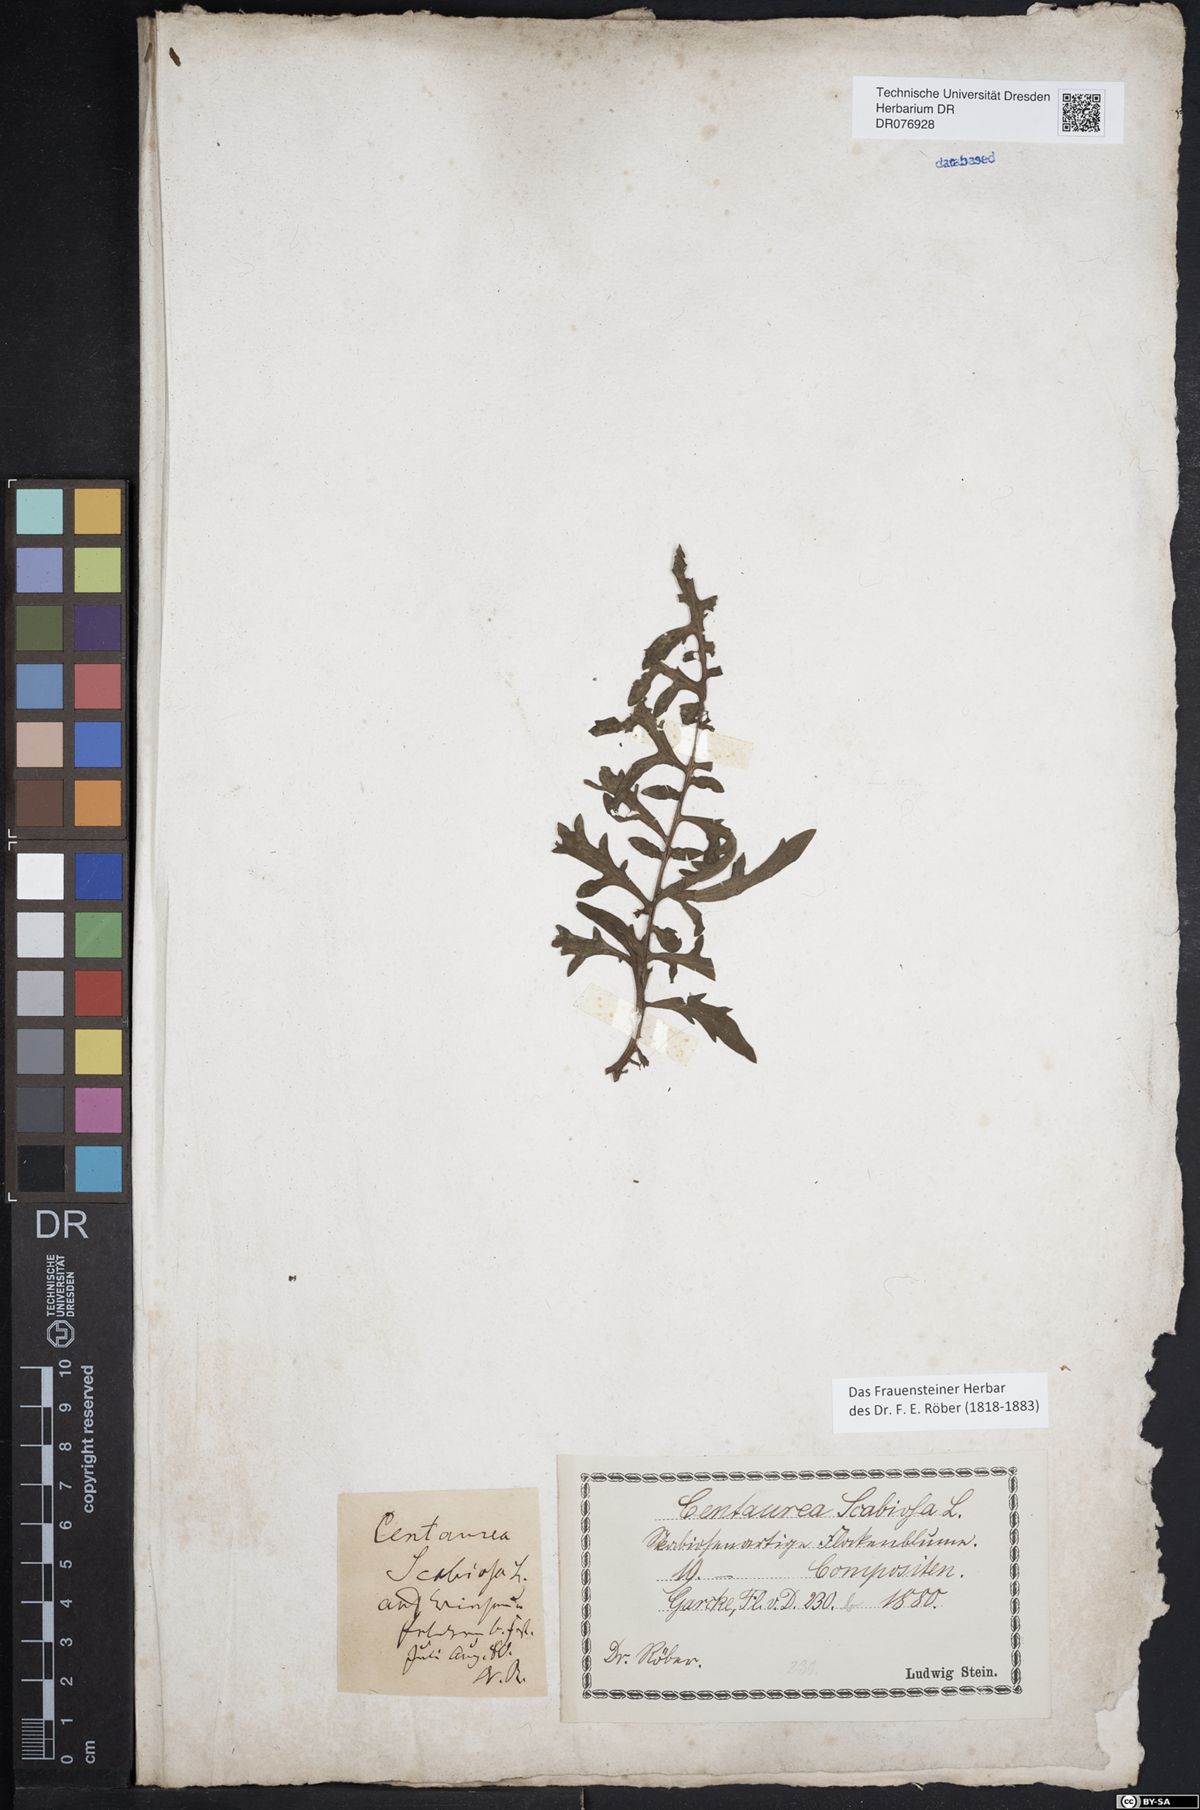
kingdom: Plantae
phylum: Tracheophyta
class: Magnoliopsida
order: Asterales
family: Asteraceae
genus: Centaurea
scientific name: Centaurea scabiosa
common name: Greater knapweed
